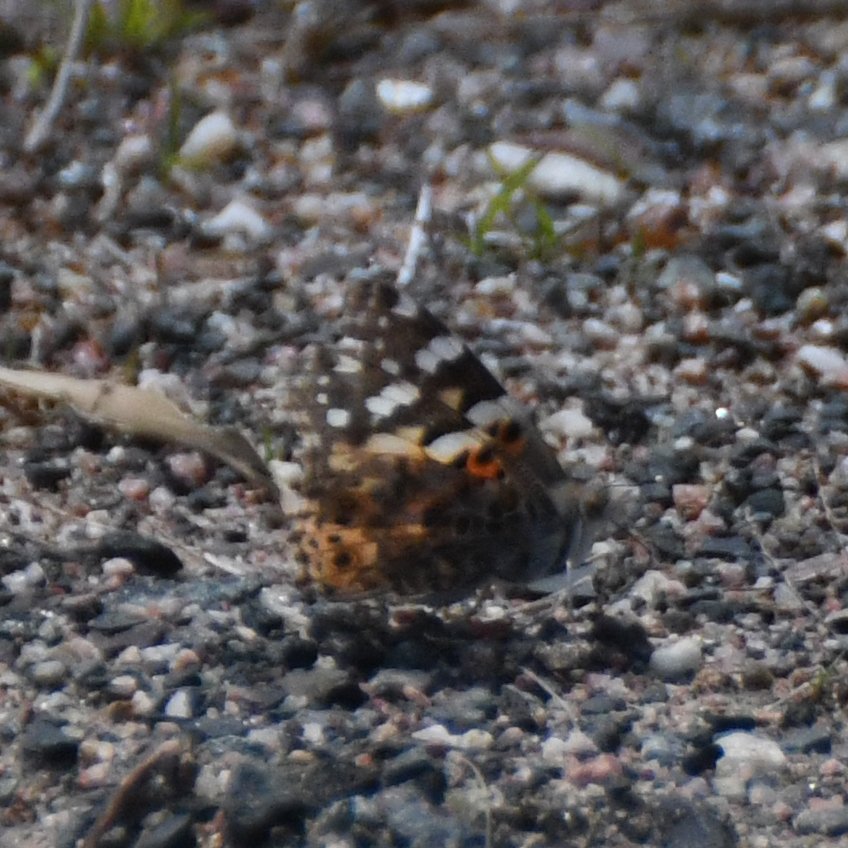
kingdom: Animalia
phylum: Arthropoda
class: Insecta
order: Lepidoptera
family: Nymphalidae
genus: Vanessa
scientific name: Vanessa cardui
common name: Painted Lady
